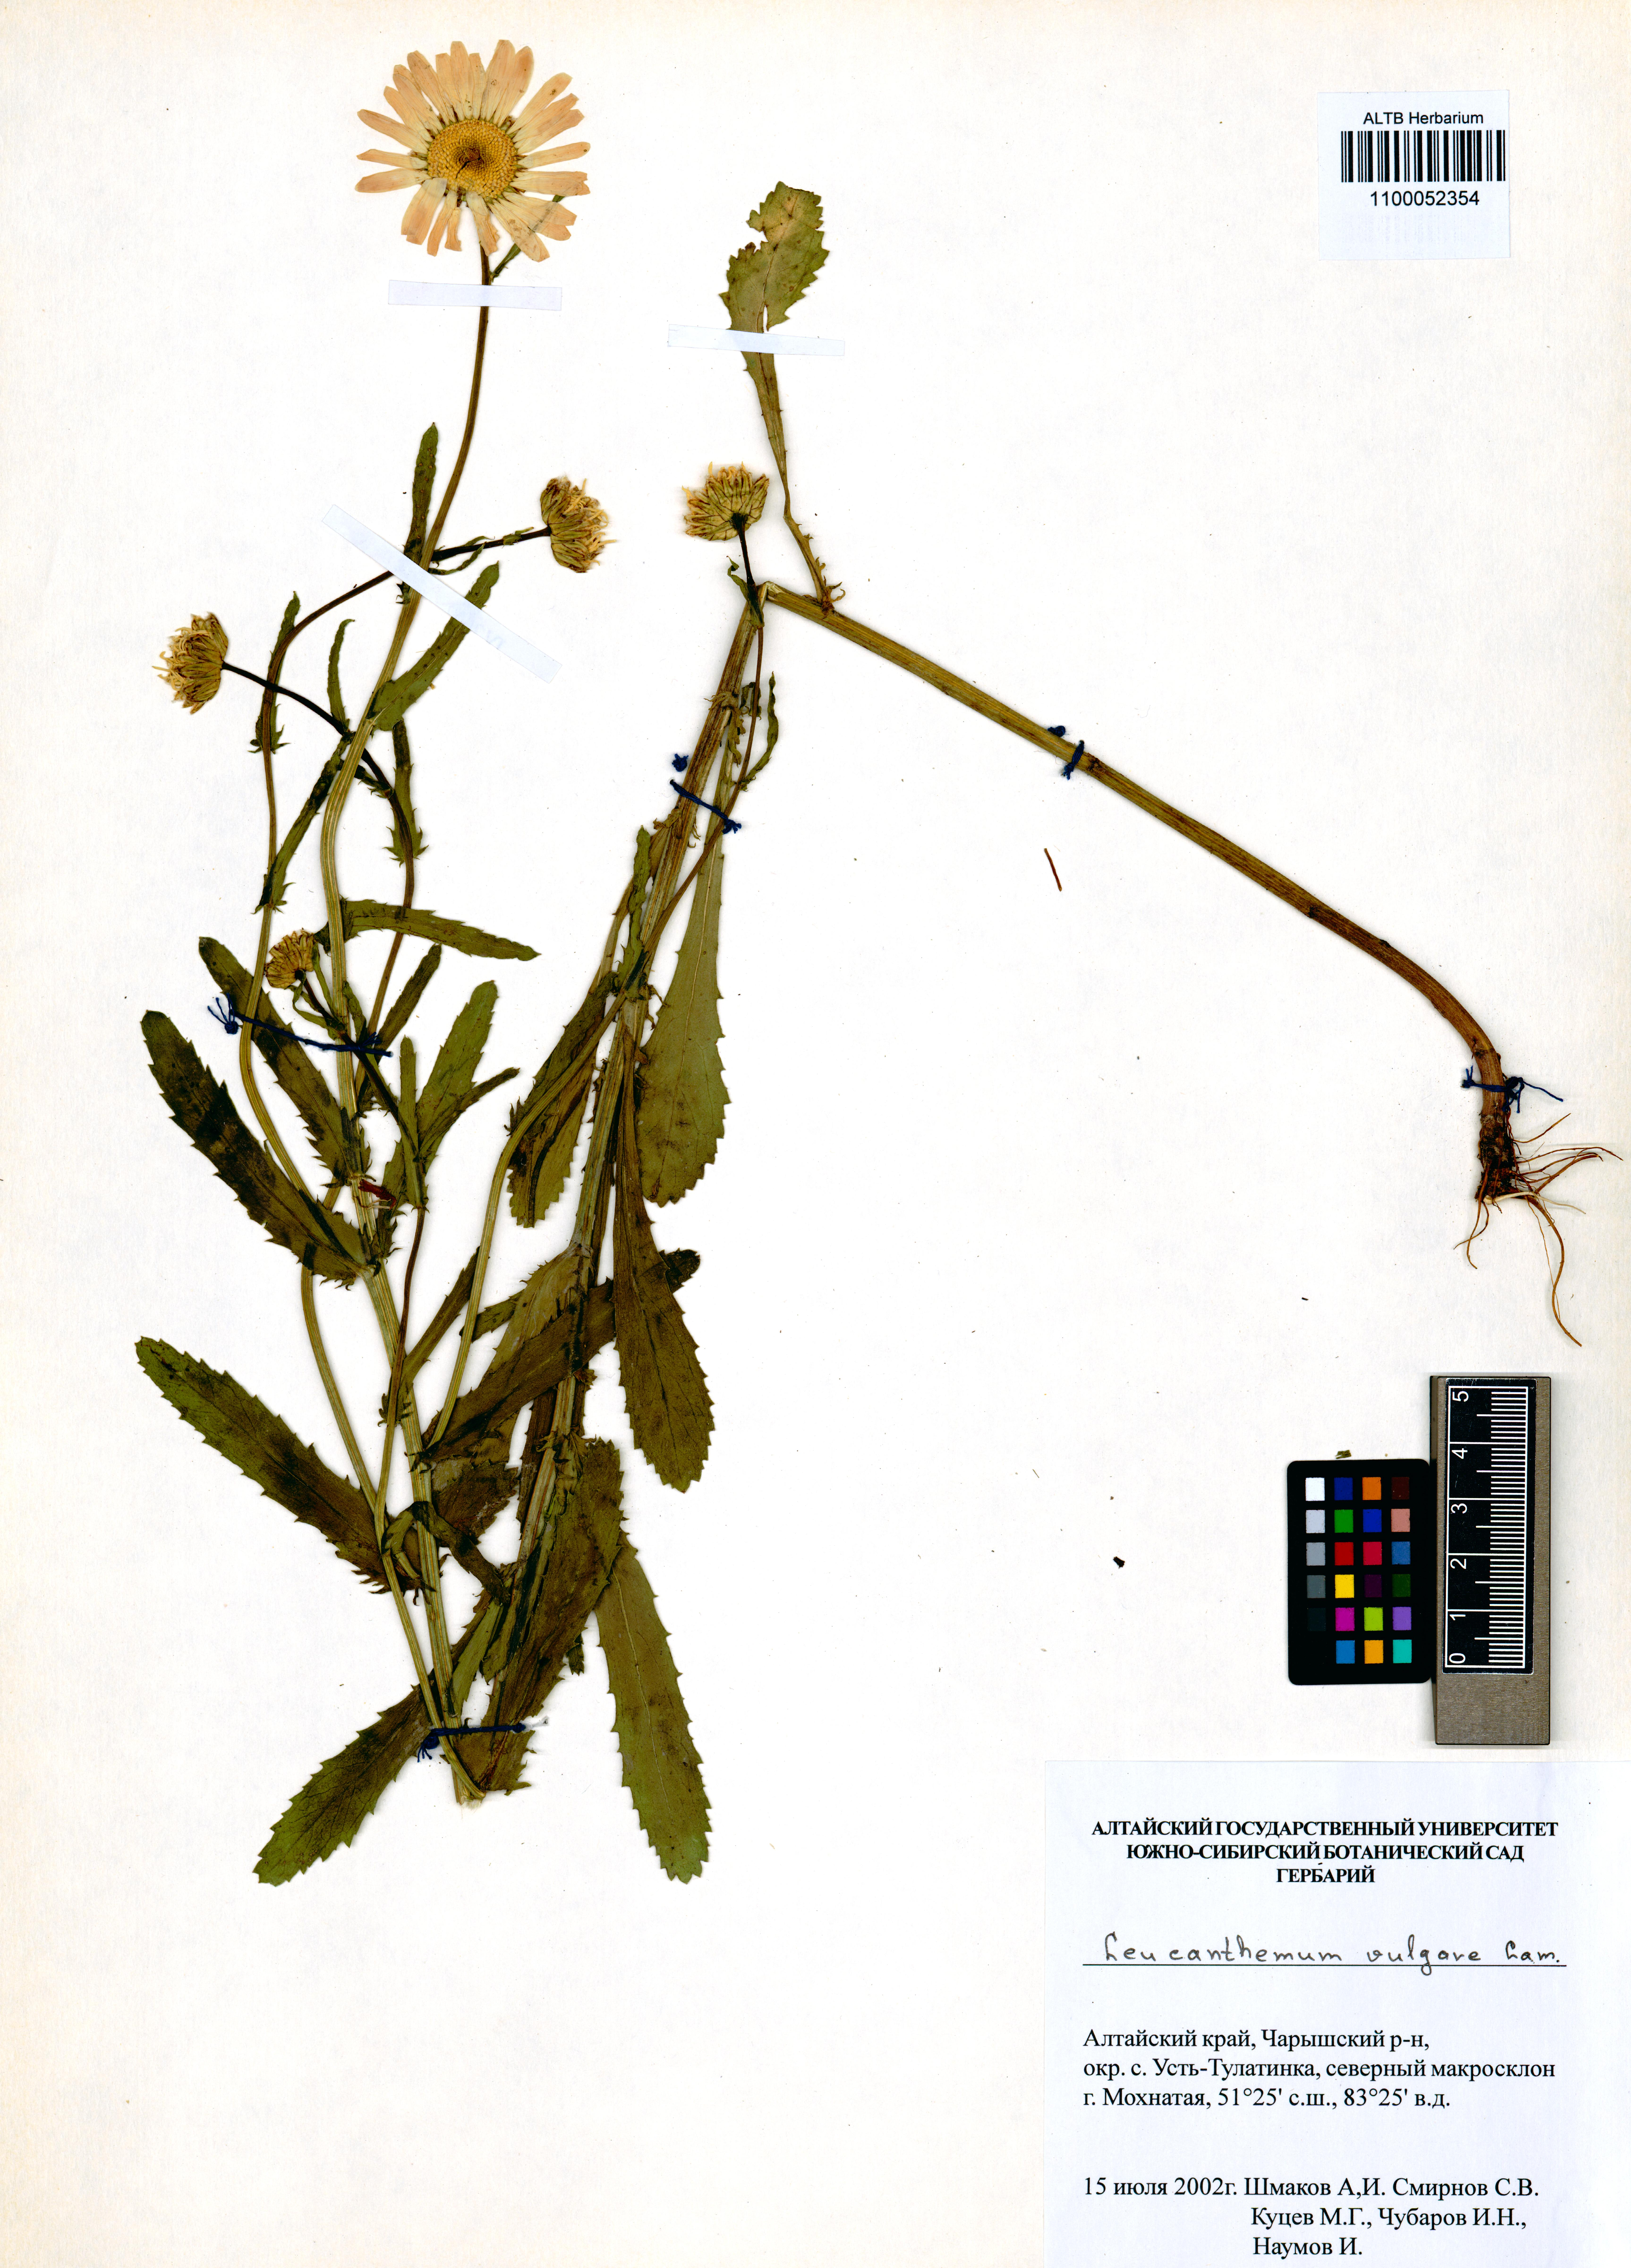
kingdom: Plantae
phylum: Tracheophyta
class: Magnoliopsida
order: Asterales
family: Asteraceae
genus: Leucanthemum
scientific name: Leucanthemum vulgare
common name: Oxeye daisy
